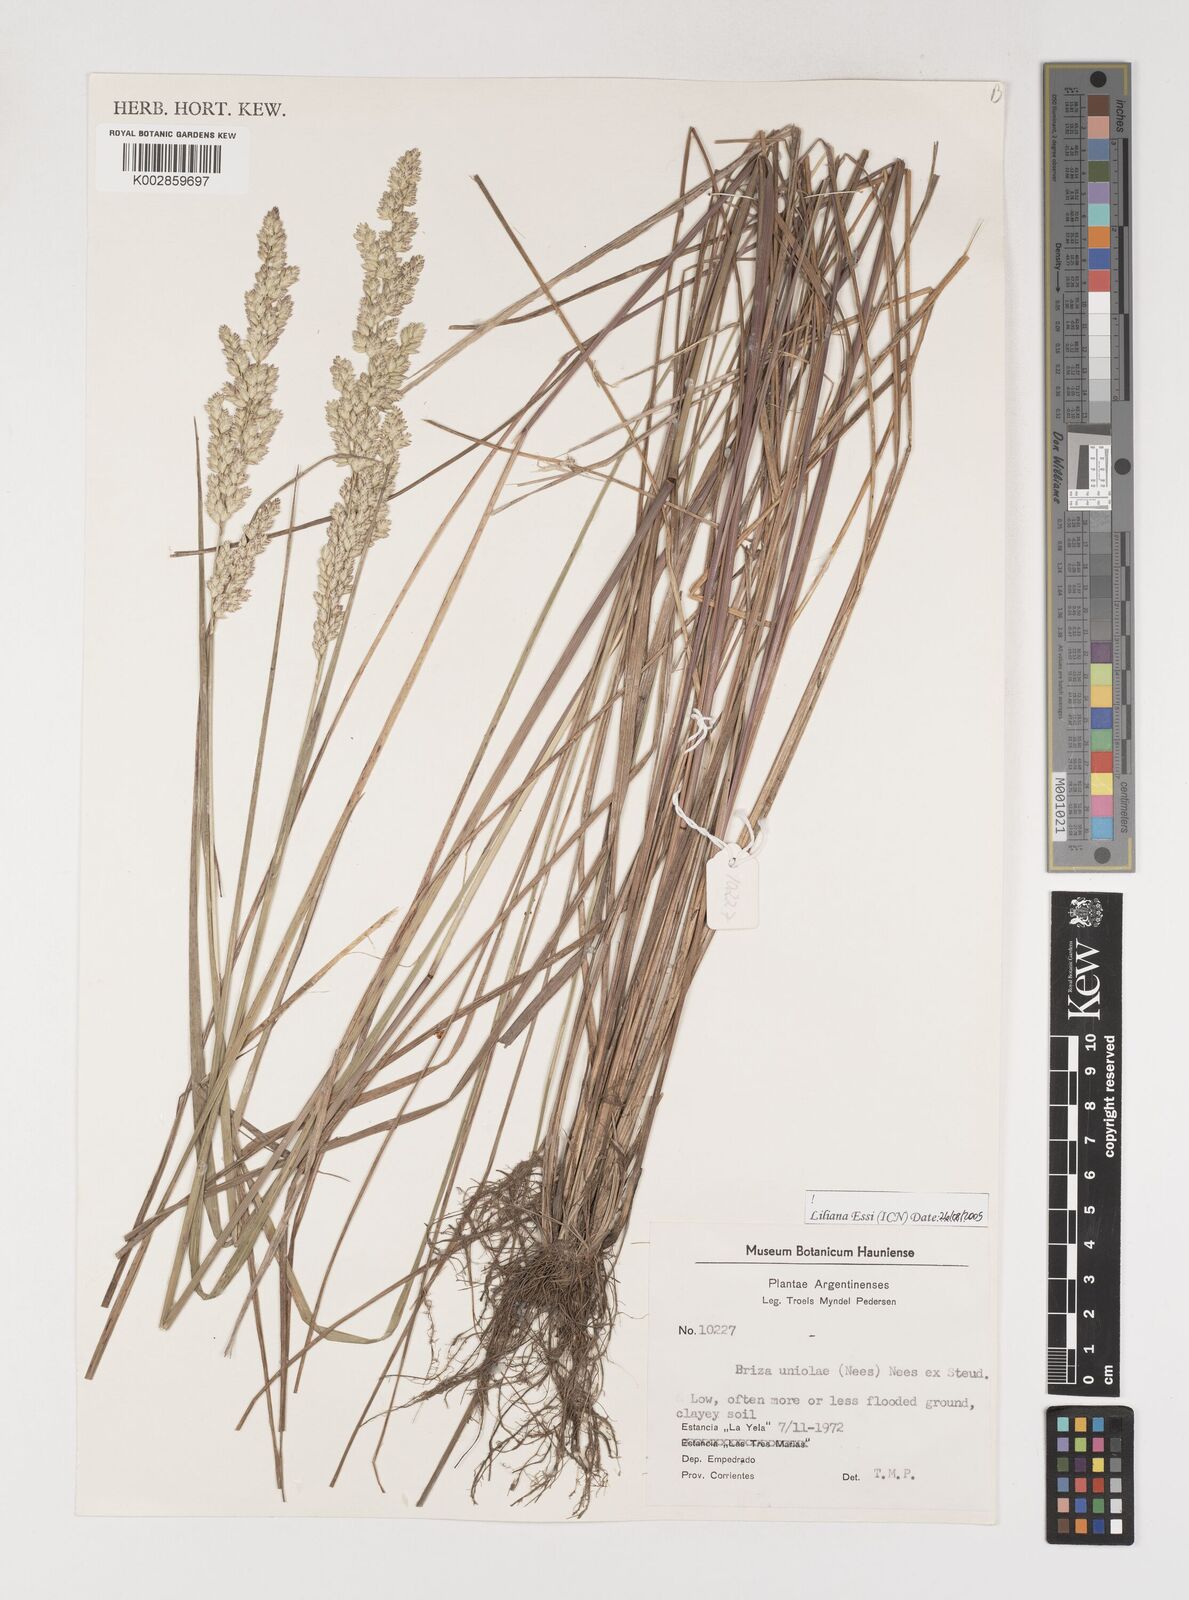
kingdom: Plantae
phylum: Tracheophyta
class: Liliopsida
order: Poales
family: Poaceae
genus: Poidium
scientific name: Poidium uniolae
